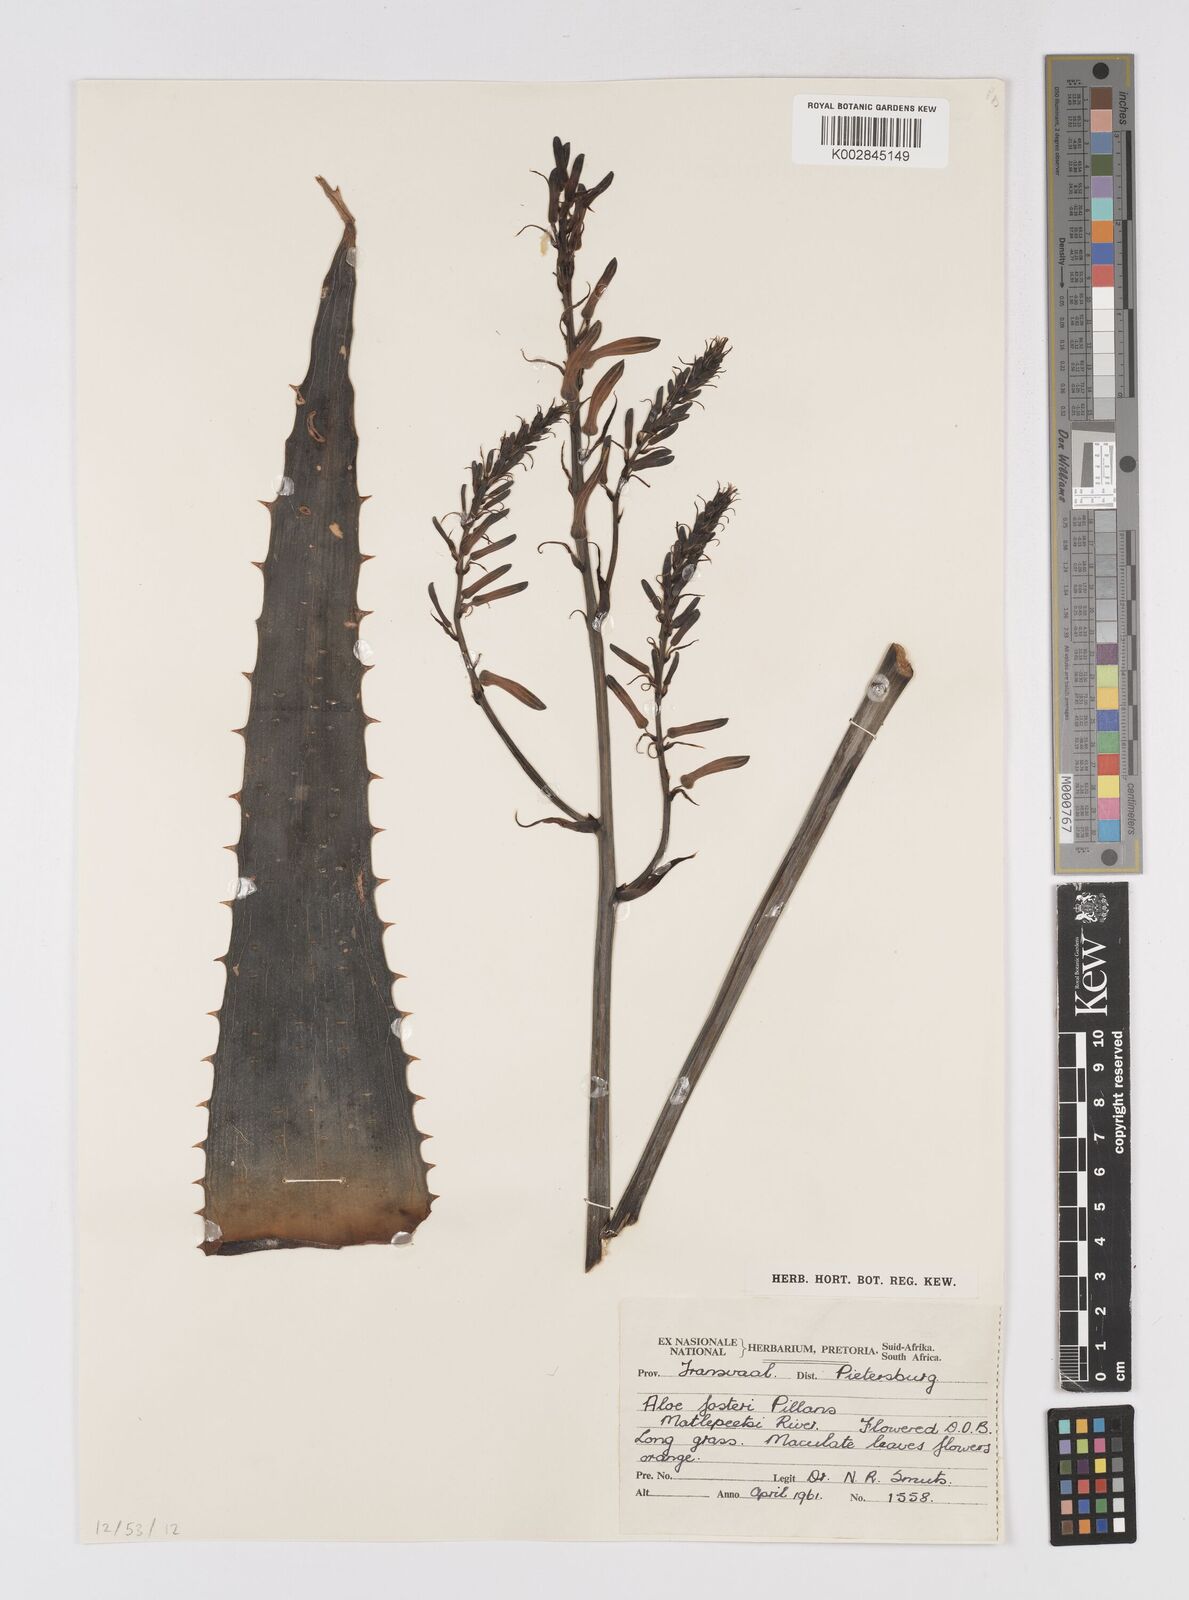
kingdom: Plantae
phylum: Tracheophyta
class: Liliopsida
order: Asparagales
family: Asphodelaceae
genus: Aloe
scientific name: Aloe fosteri
